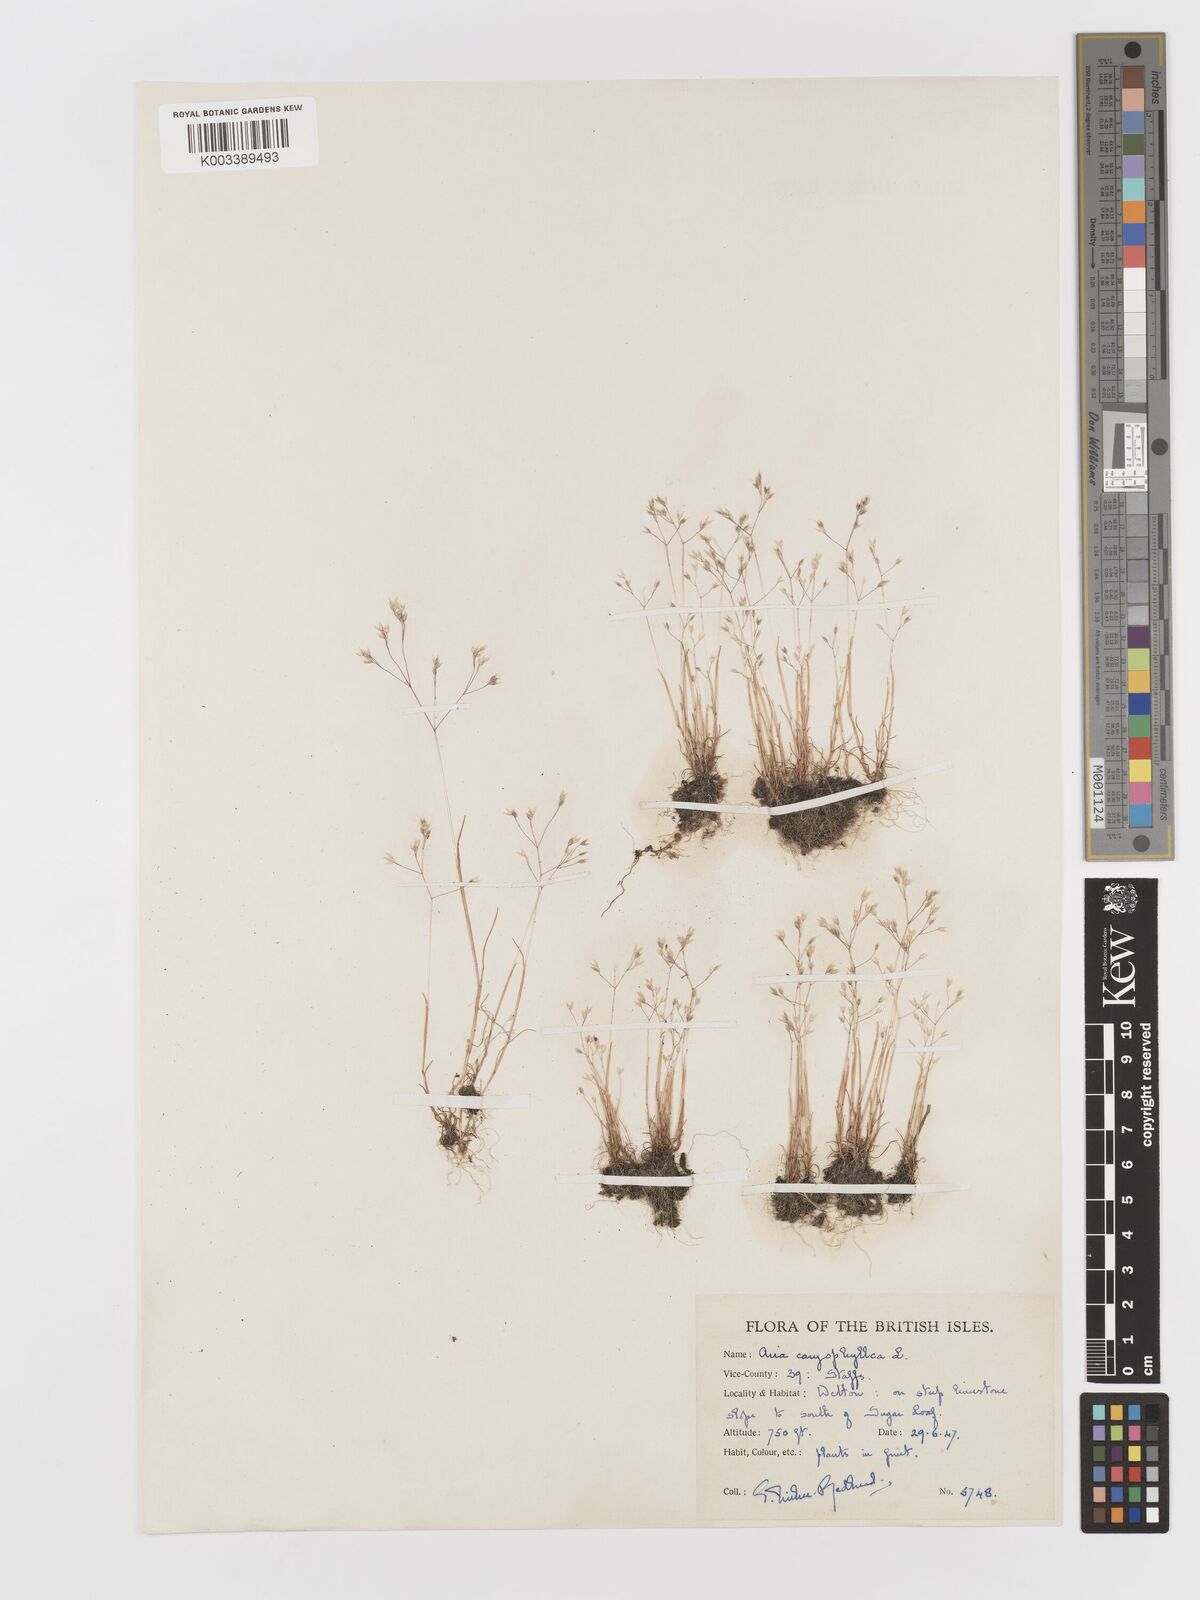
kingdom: Plantae
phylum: Tracheophyta
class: Liliopsida
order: Poales
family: Poaceae
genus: Aira
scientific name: Aira caryophyllea
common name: Silver hairgrass
